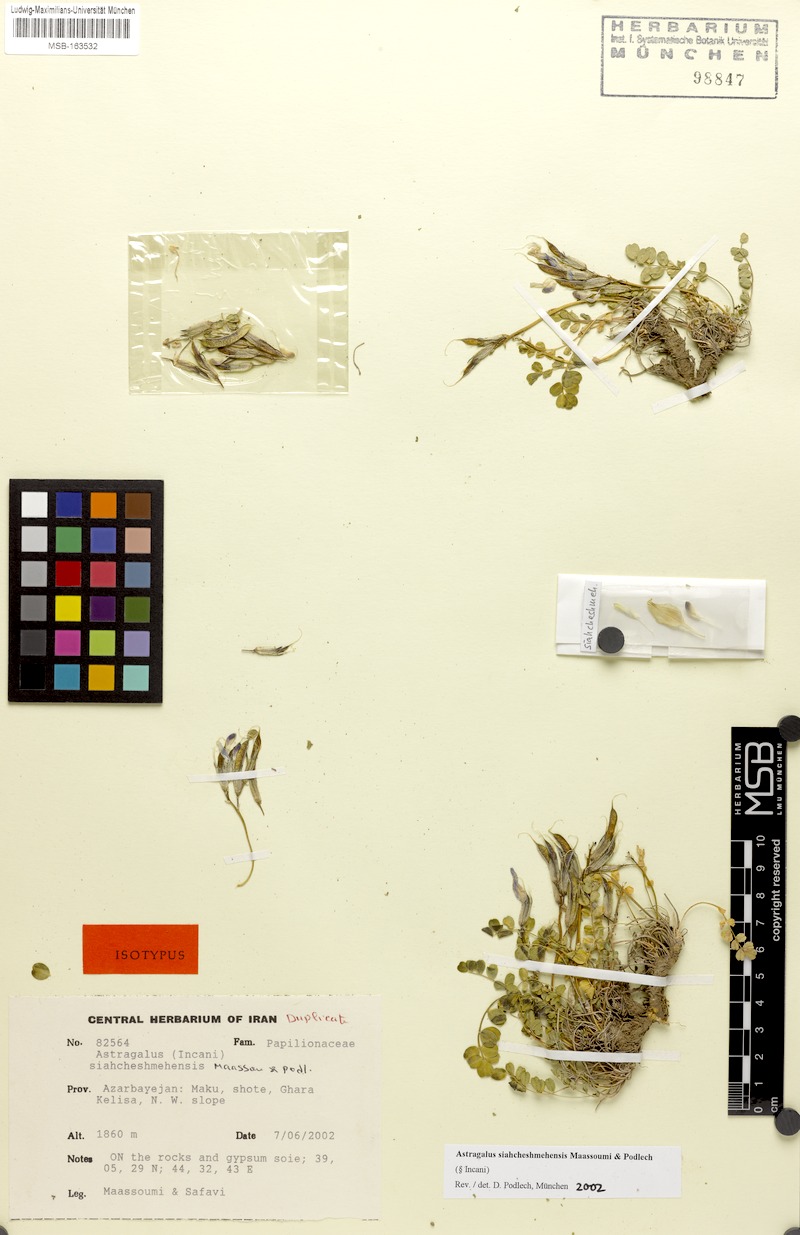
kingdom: Plantae
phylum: Tracheophyta
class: Magnoliopsida
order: Fabales
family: Fabaceae
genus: Astragalus
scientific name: Astragalus siahcheshmehensis
